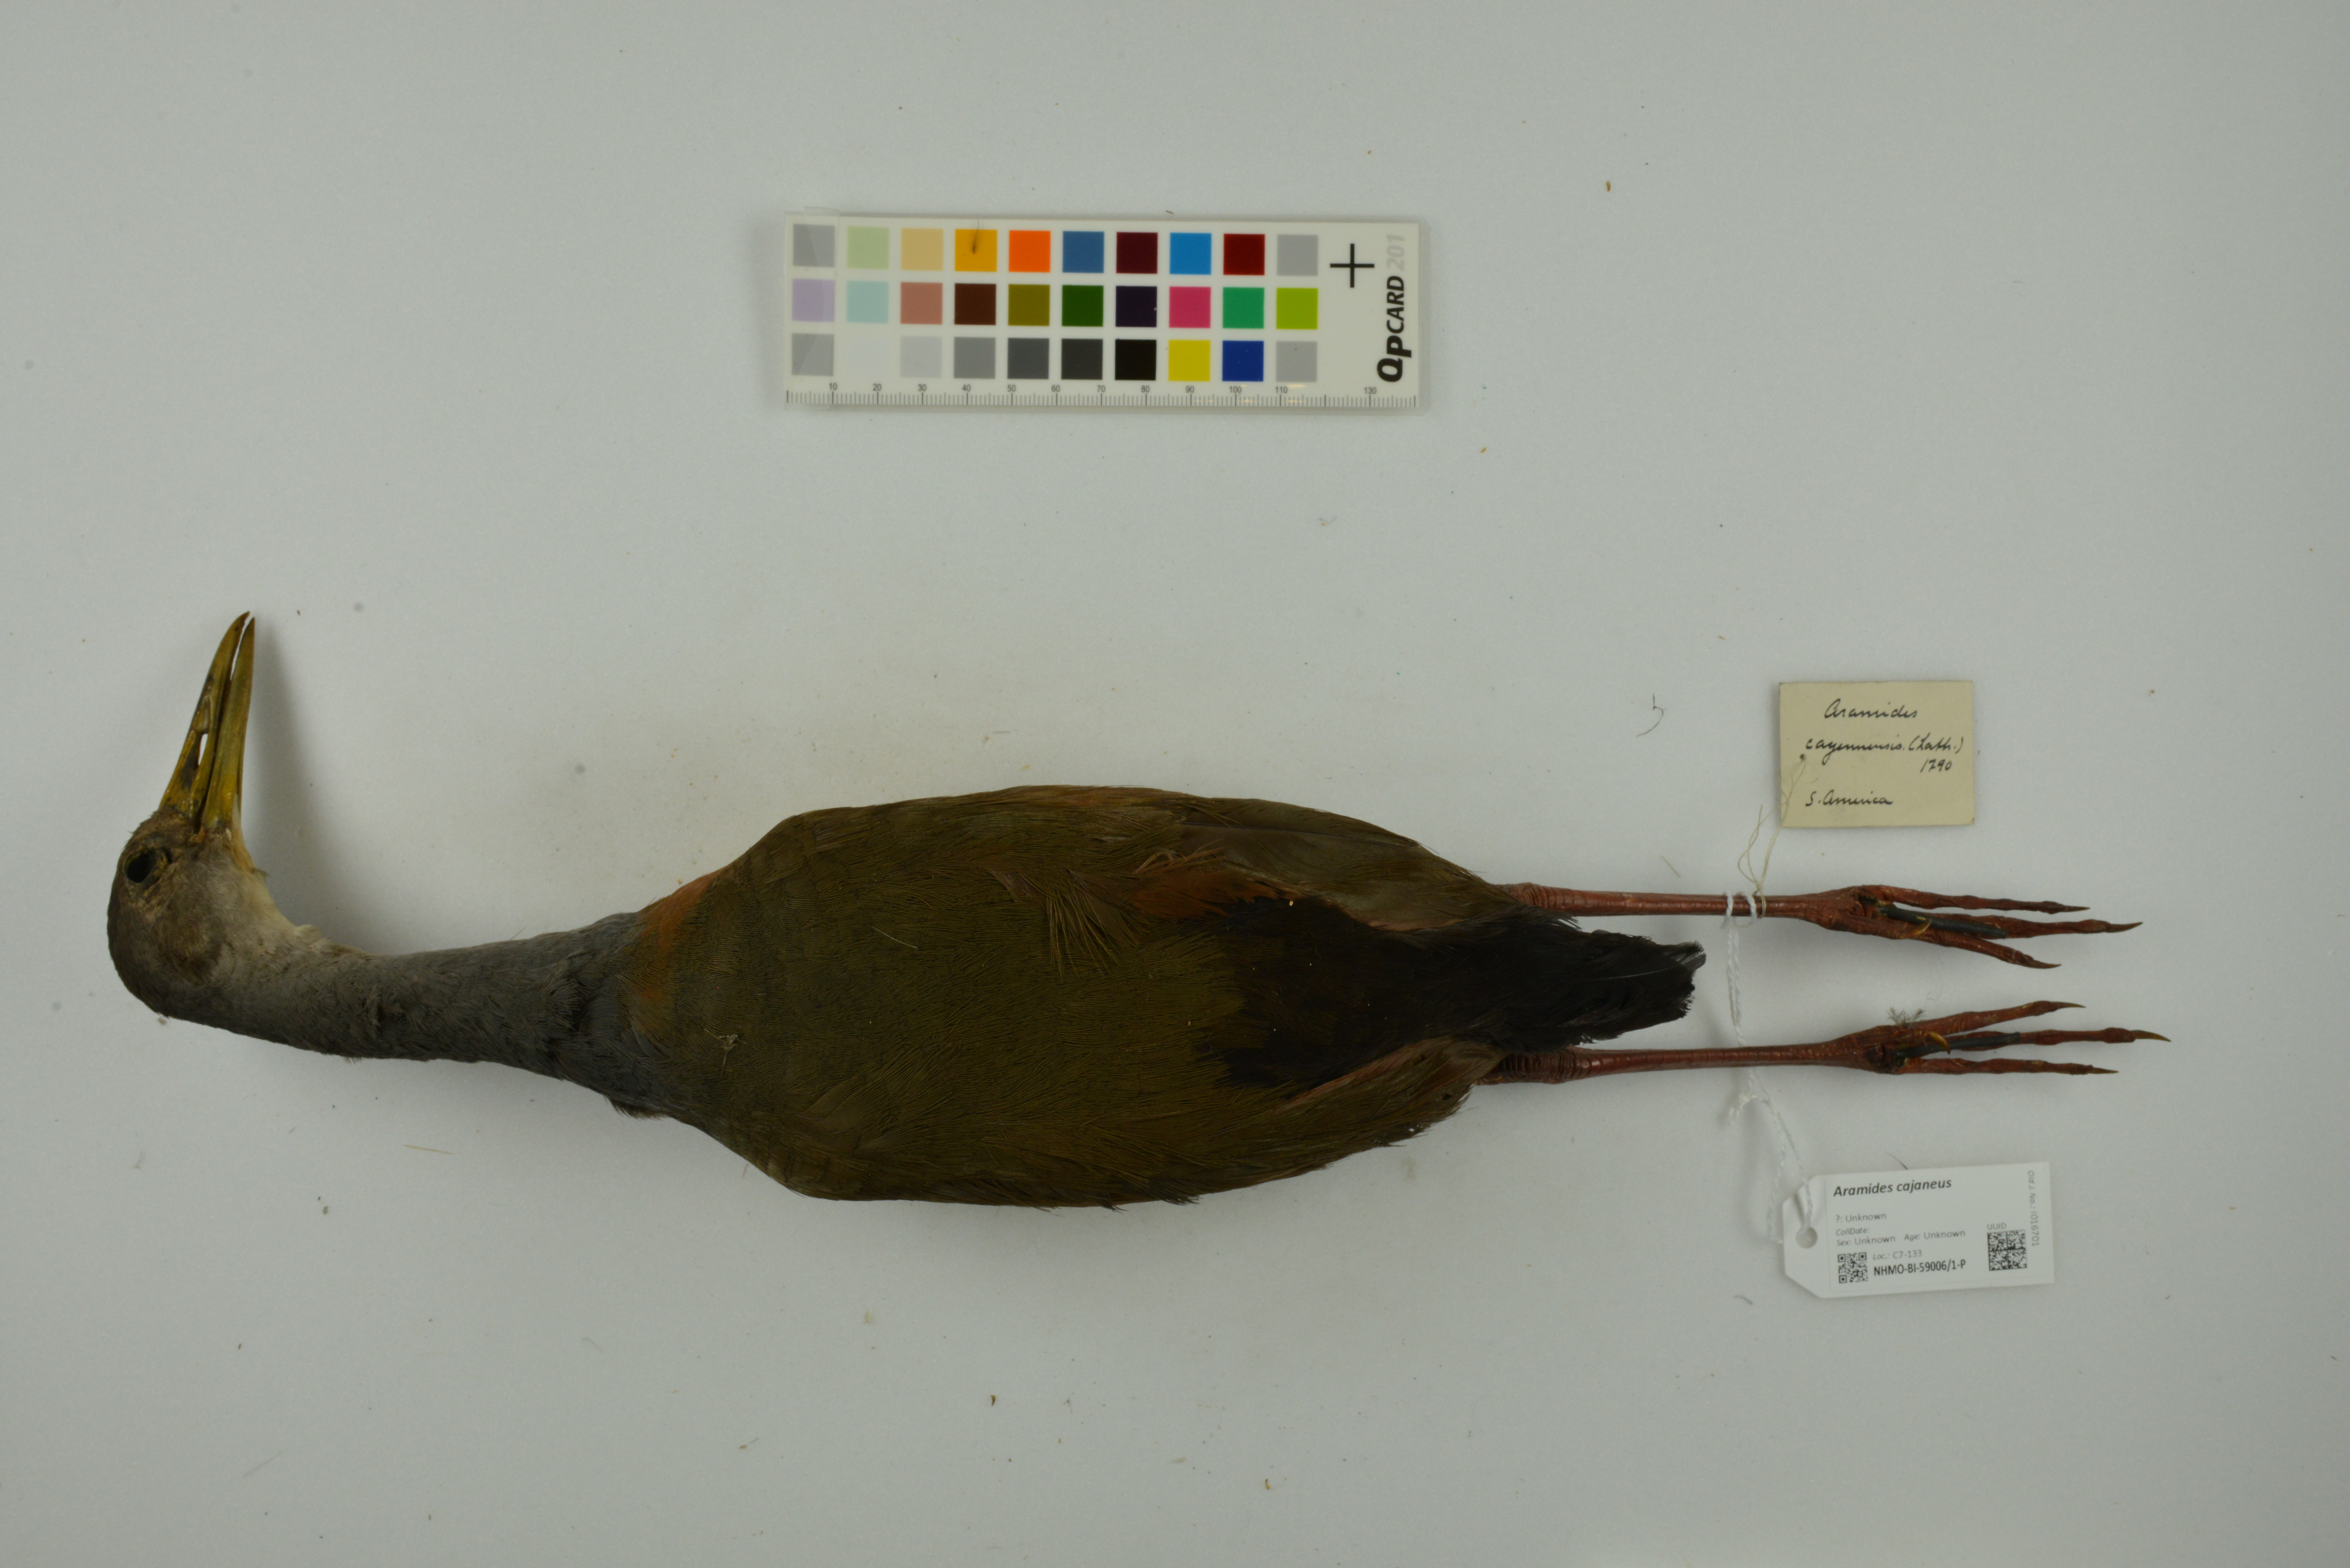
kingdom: Animalia
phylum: Chordata
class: Aves
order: Gruiformes
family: Rallidae
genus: Aramides
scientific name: Aramides cajanea
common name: Gray-necked wood-rail
